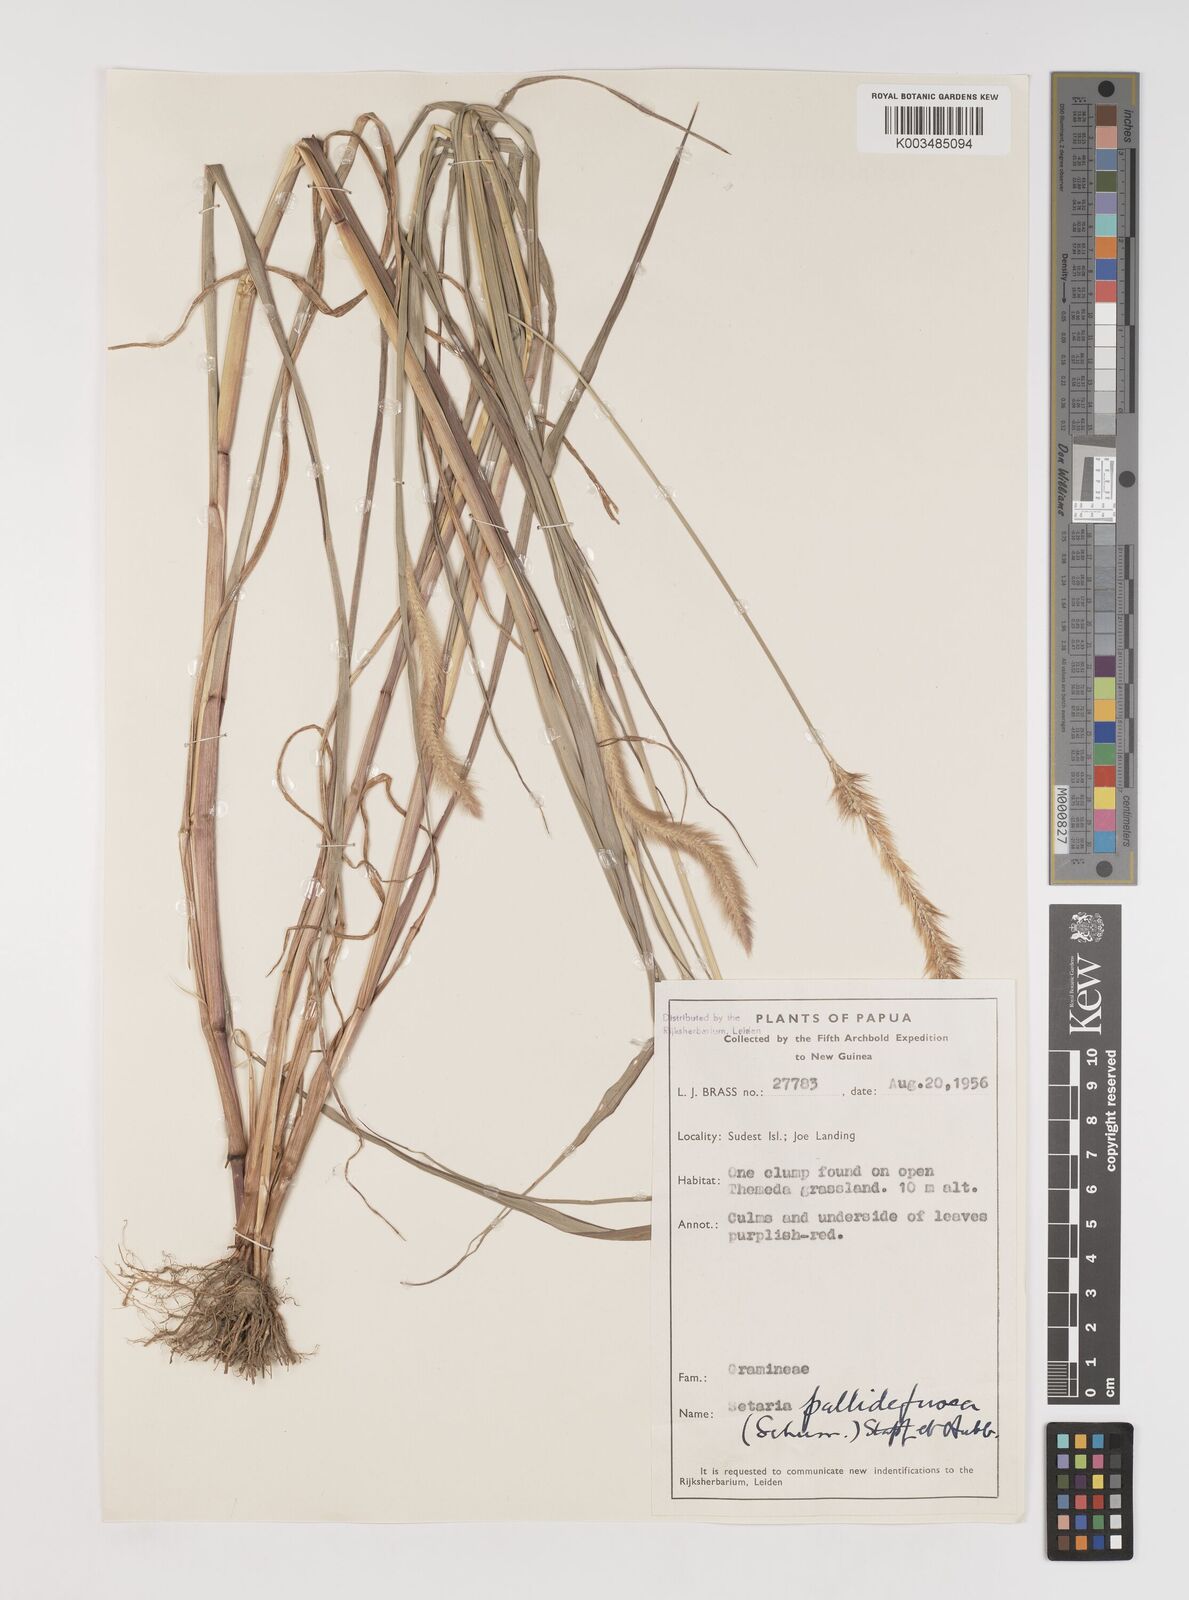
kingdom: Plantae
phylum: Tracheophyta
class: Liliopsida
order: Poales
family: Poaceae
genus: Setaria
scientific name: Setaria pumila
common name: Yellow bristle-grass
